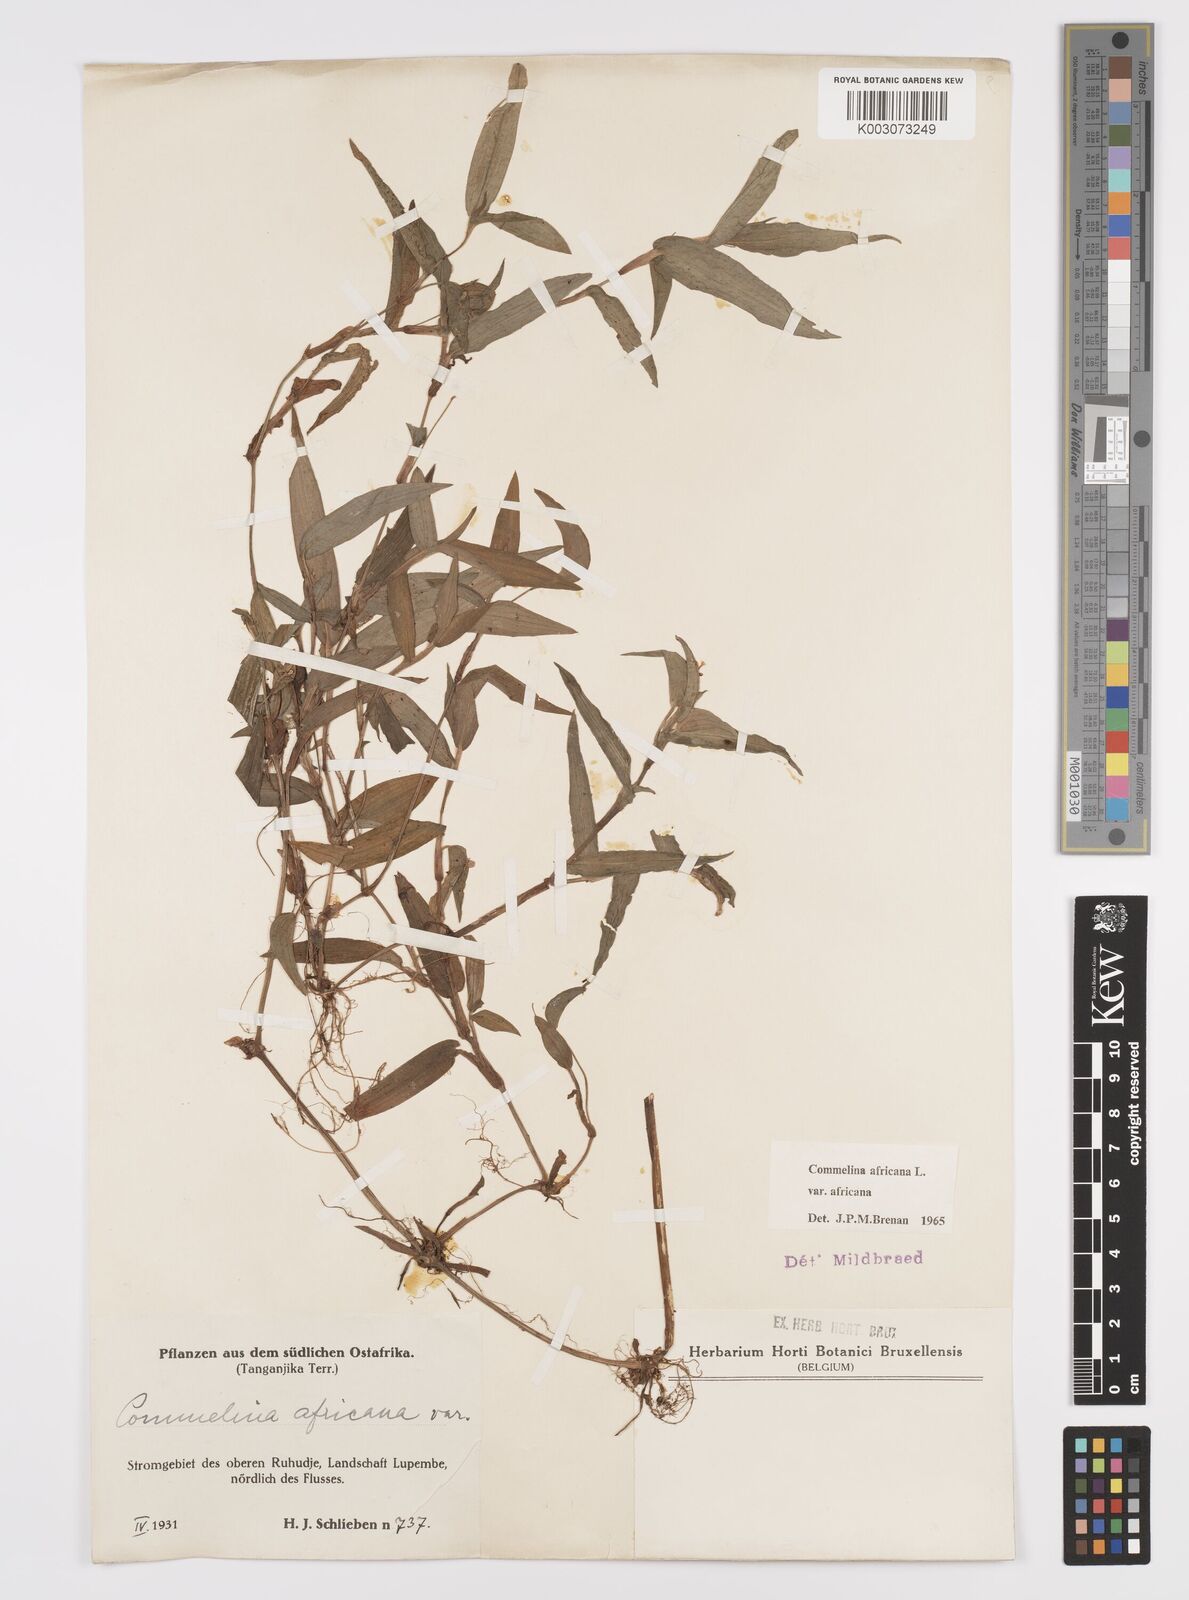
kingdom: Plantae
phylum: Tracheophyta
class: Liliopsida
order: Commelinales
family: Commelinaceae
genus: Commelina
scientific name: Commelina africana
